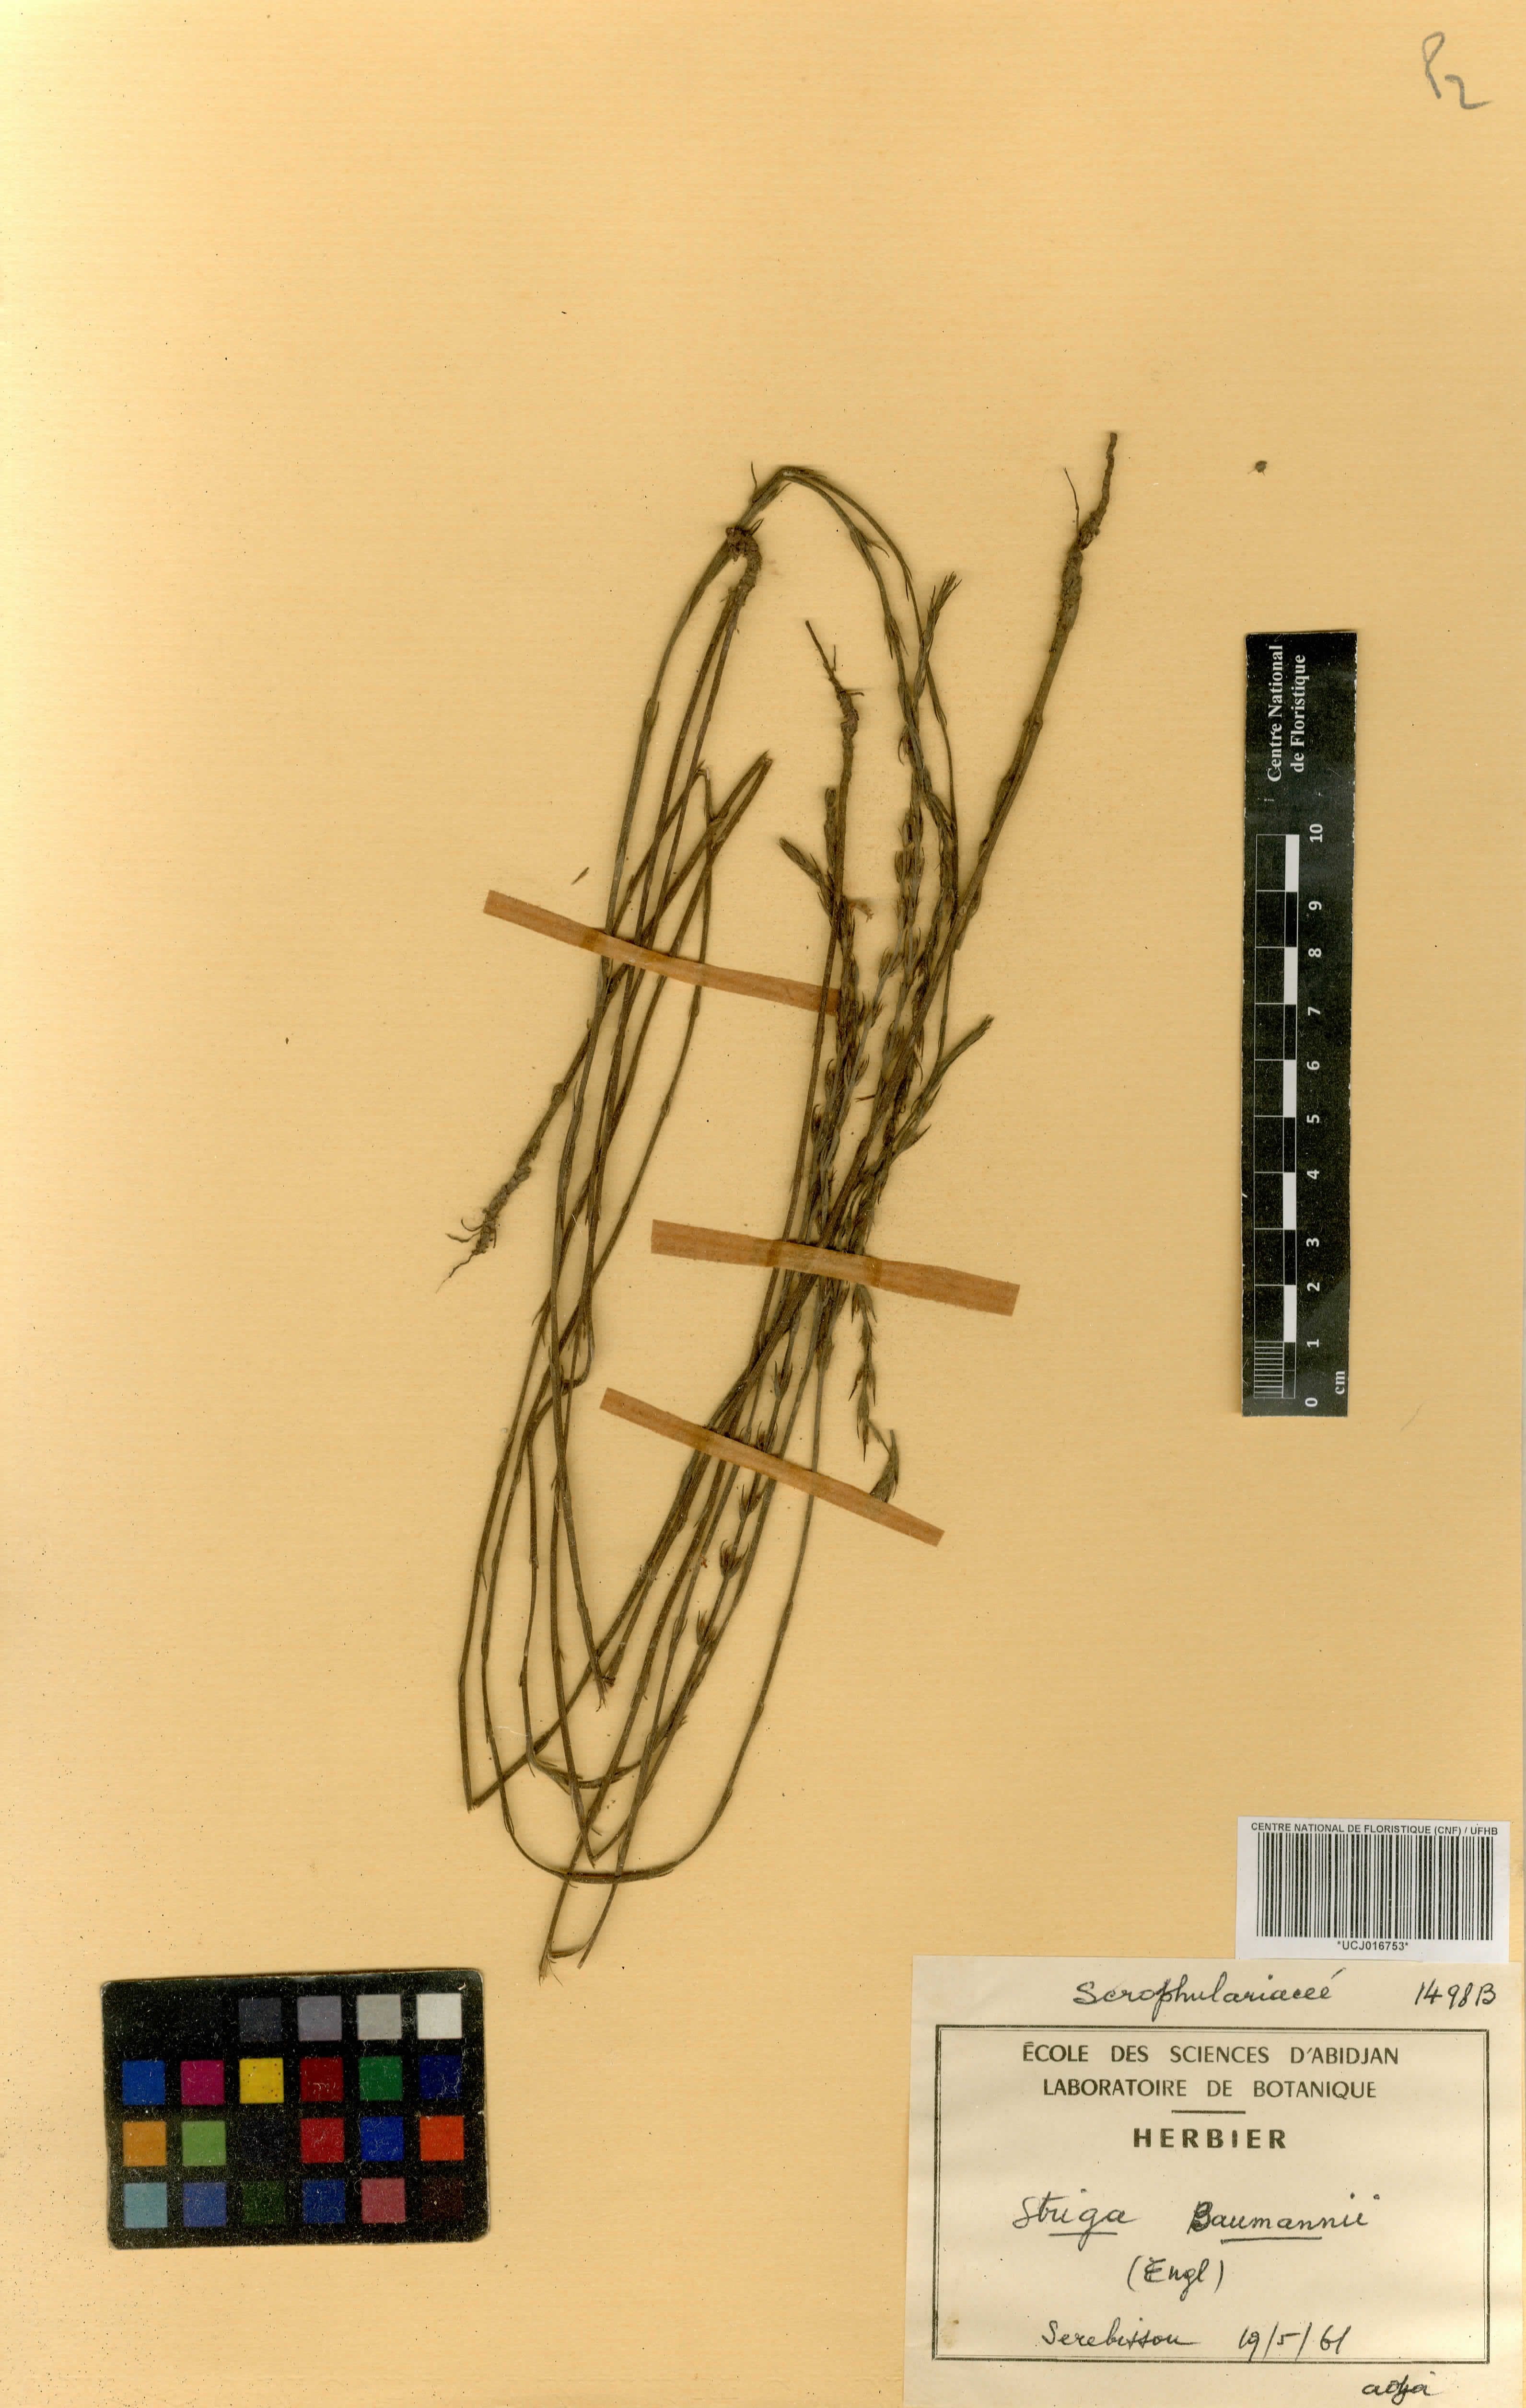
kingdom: Plantae
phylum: Tracheophyta
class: Magnoliopsida
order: Lamiales
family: Orobanchaceae
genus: Striga
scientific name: Striga baumannii
